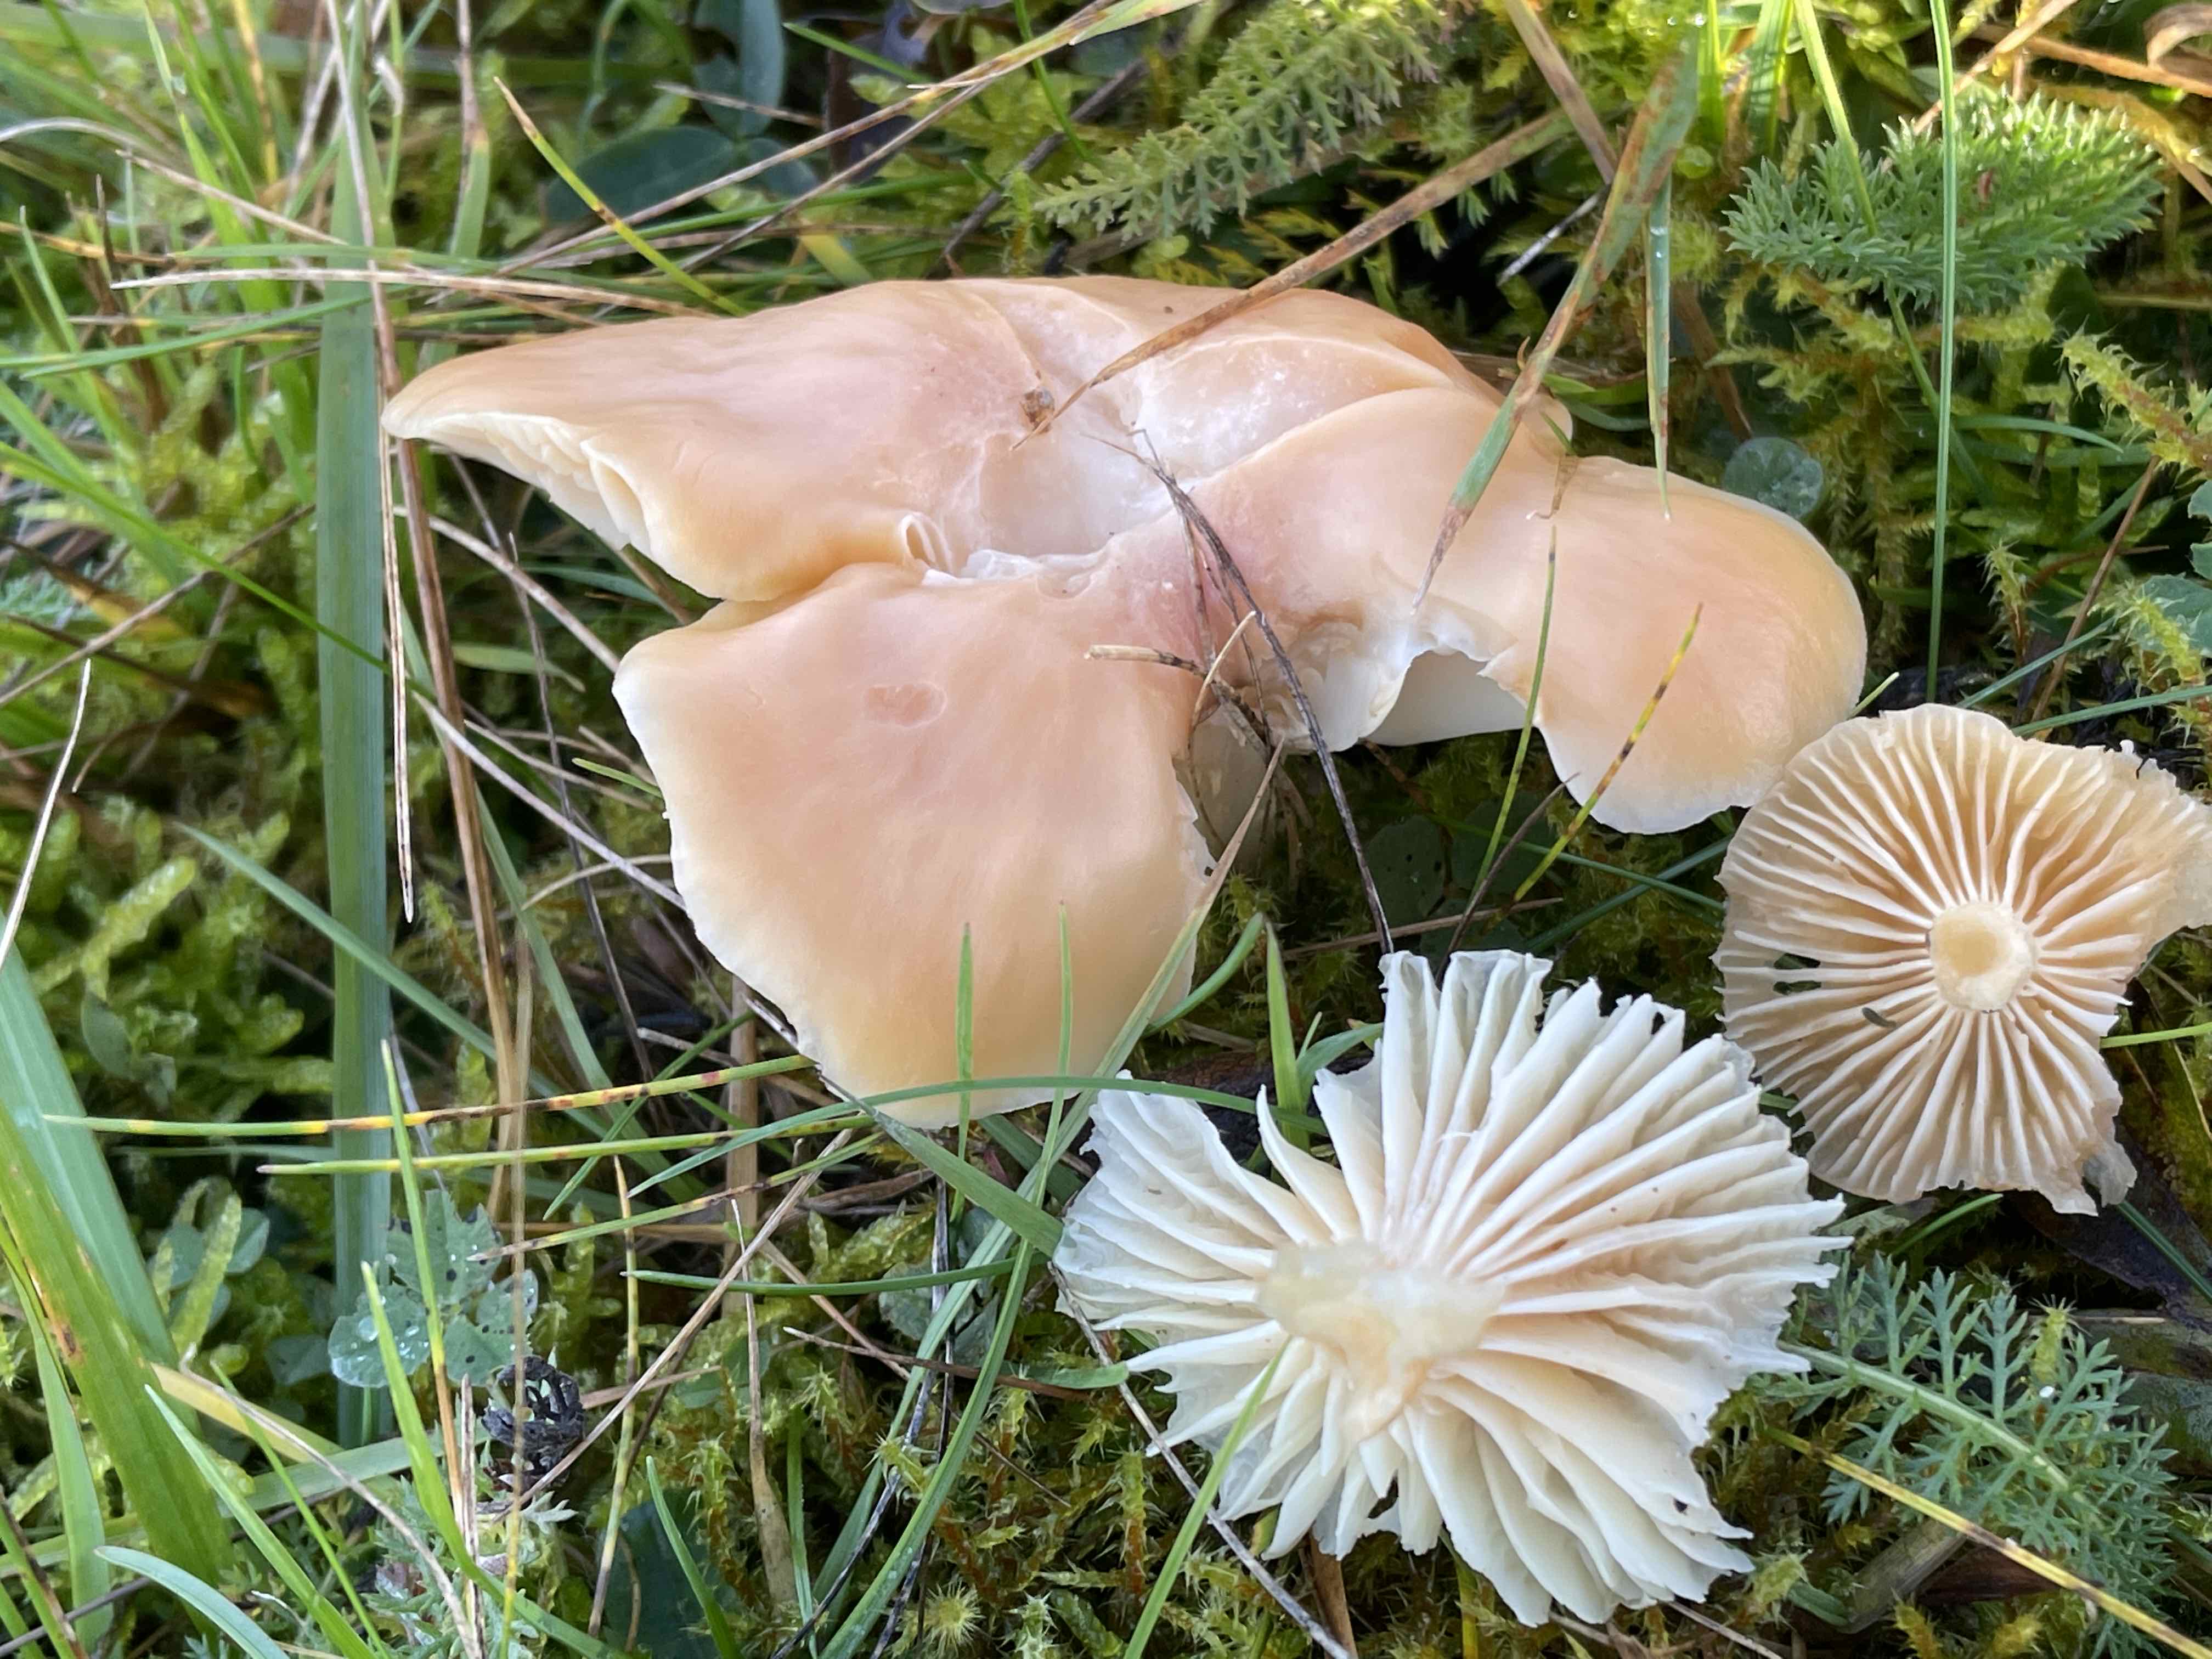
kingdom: Fungi
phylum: Basidiomycota
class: Agaricomycetes
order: Agaricales
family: Hygrophoraceae
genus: Cuphophyllus
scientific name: Cuphophyllus pratensis
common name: eng-vokshat
